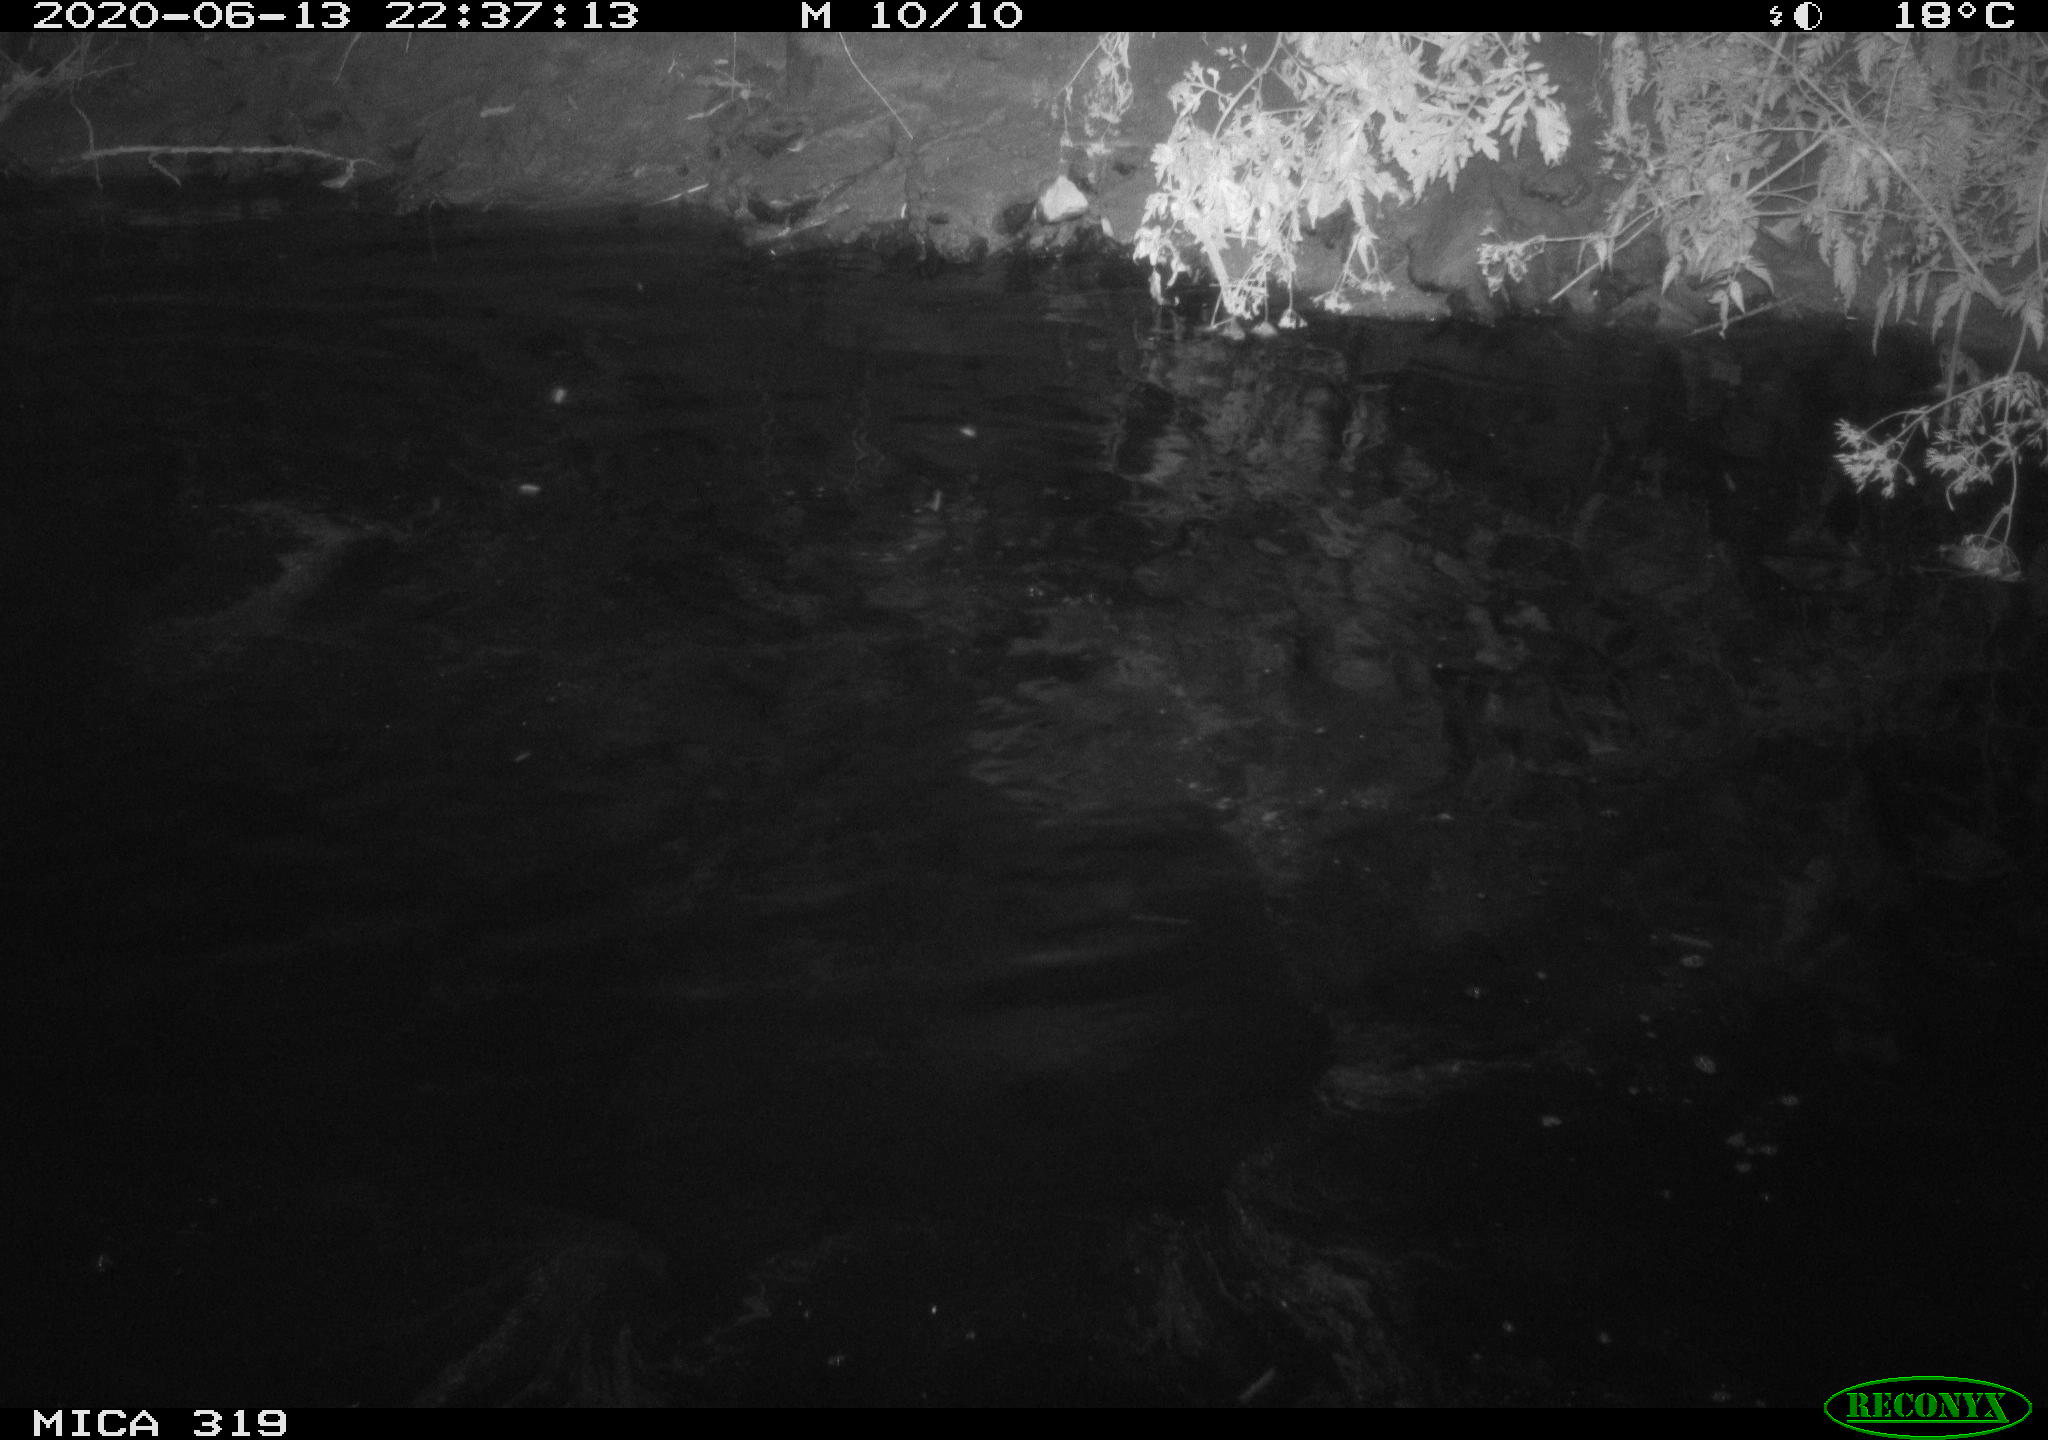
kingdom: Animalia
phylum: Chordata
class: Aves
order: Pelecaniformes
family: Ardeidae
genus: Ardea
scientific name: Ardea cinerea
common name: Grey heron
